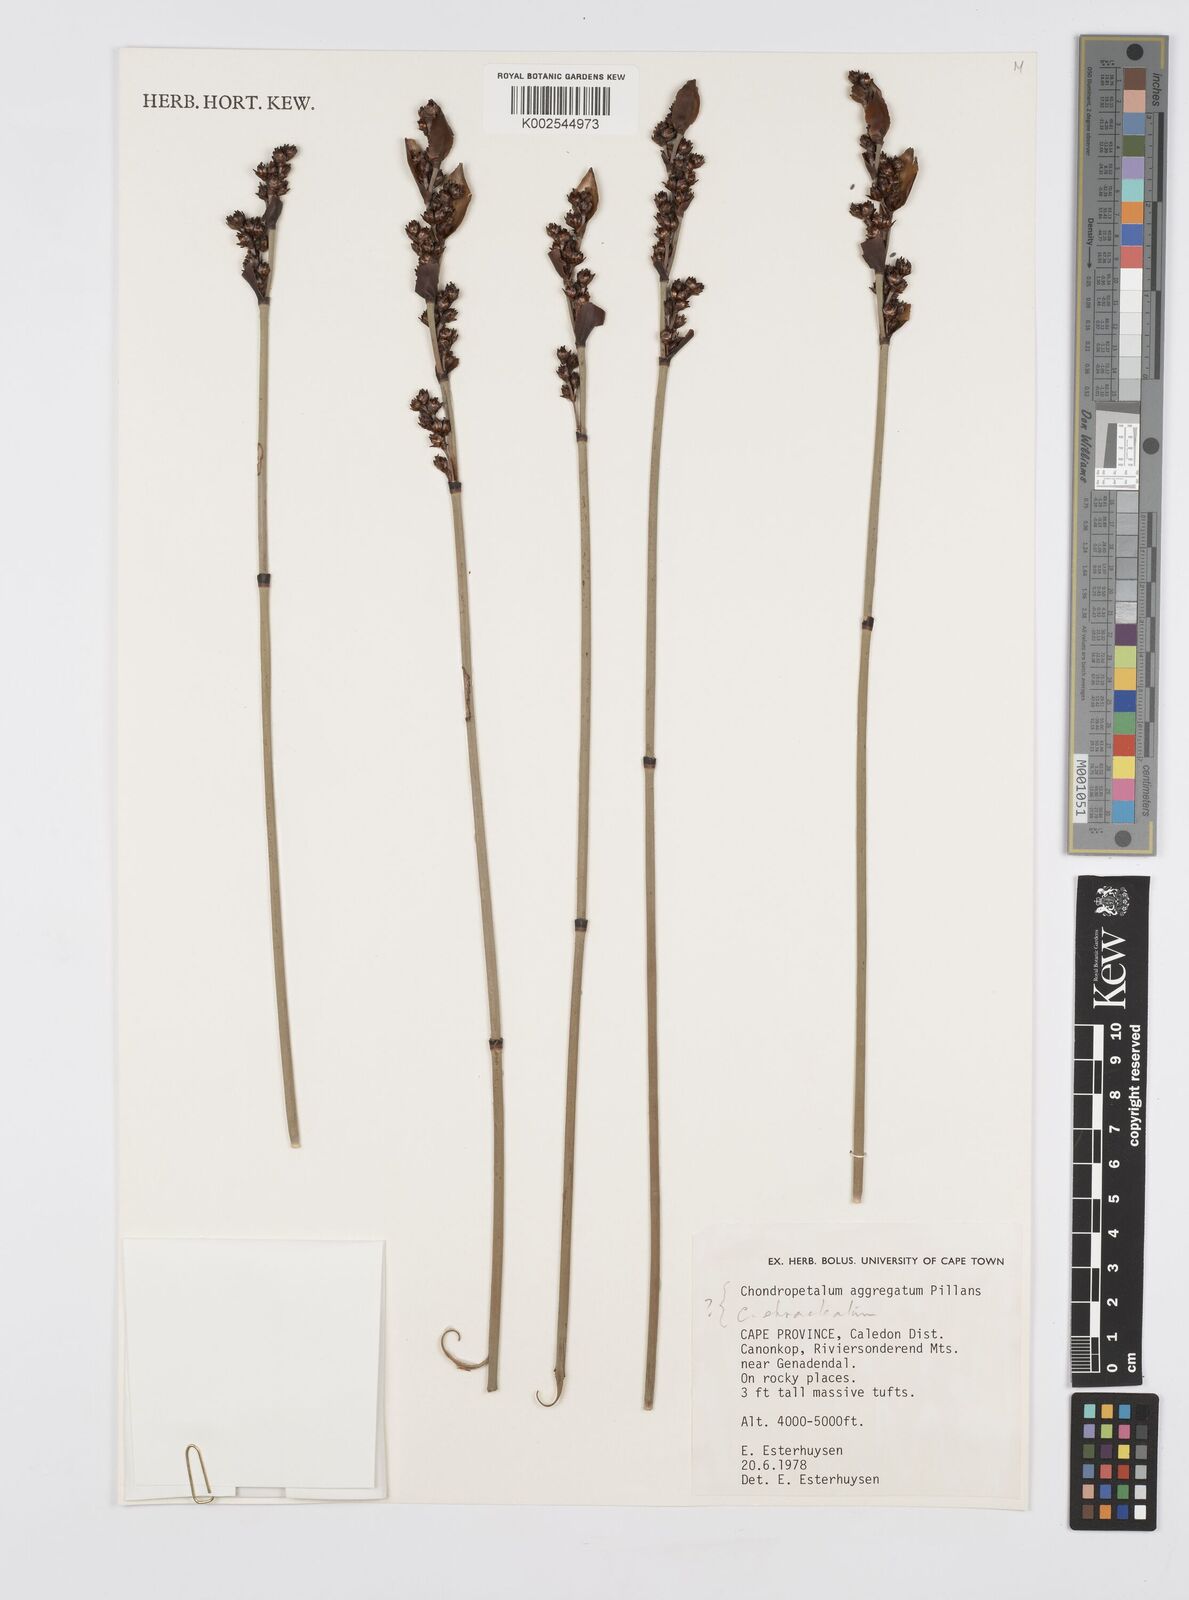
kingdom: Plantae
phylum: Tracheophyta
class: Liliopsida
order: Poales
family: Restionaceae
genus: Elegia
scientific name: Elegia aggregata
